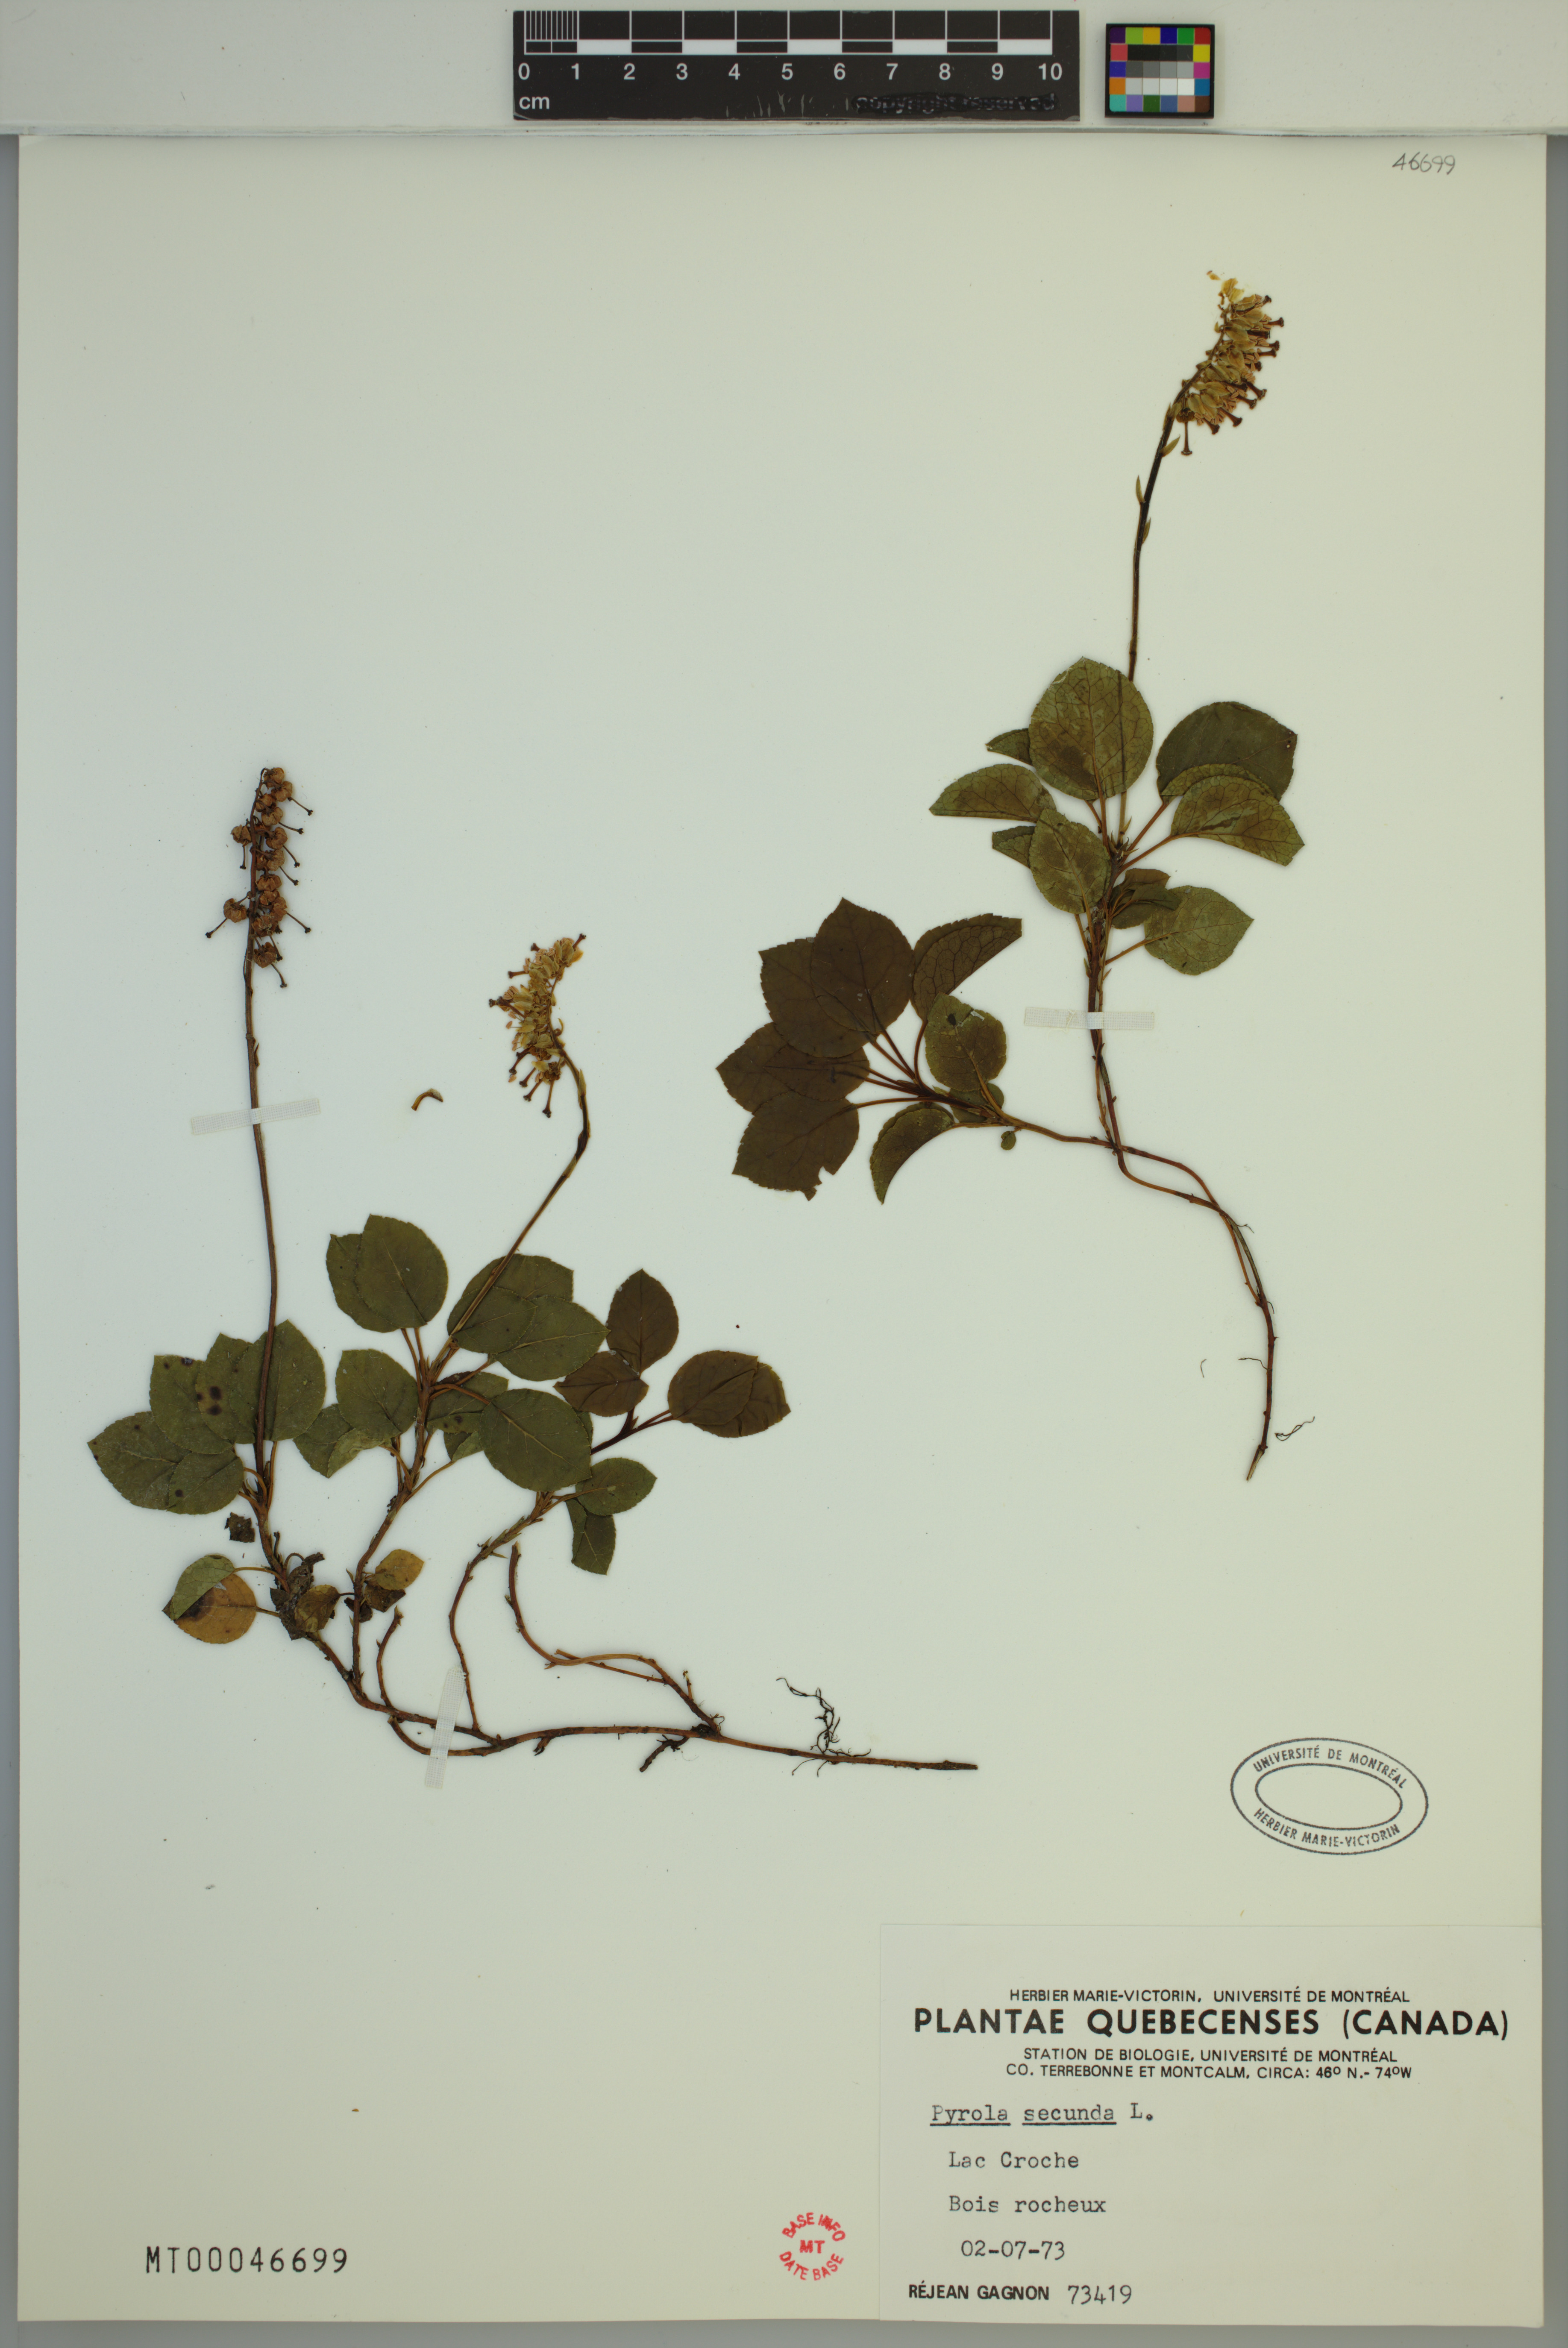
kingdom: Plantae
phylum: Tracheophyta
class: Magnoliopsida
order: Ericales
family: Ericaceae
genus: Orthilia
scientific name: Orthilia secunda
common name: One-sided orthilia
